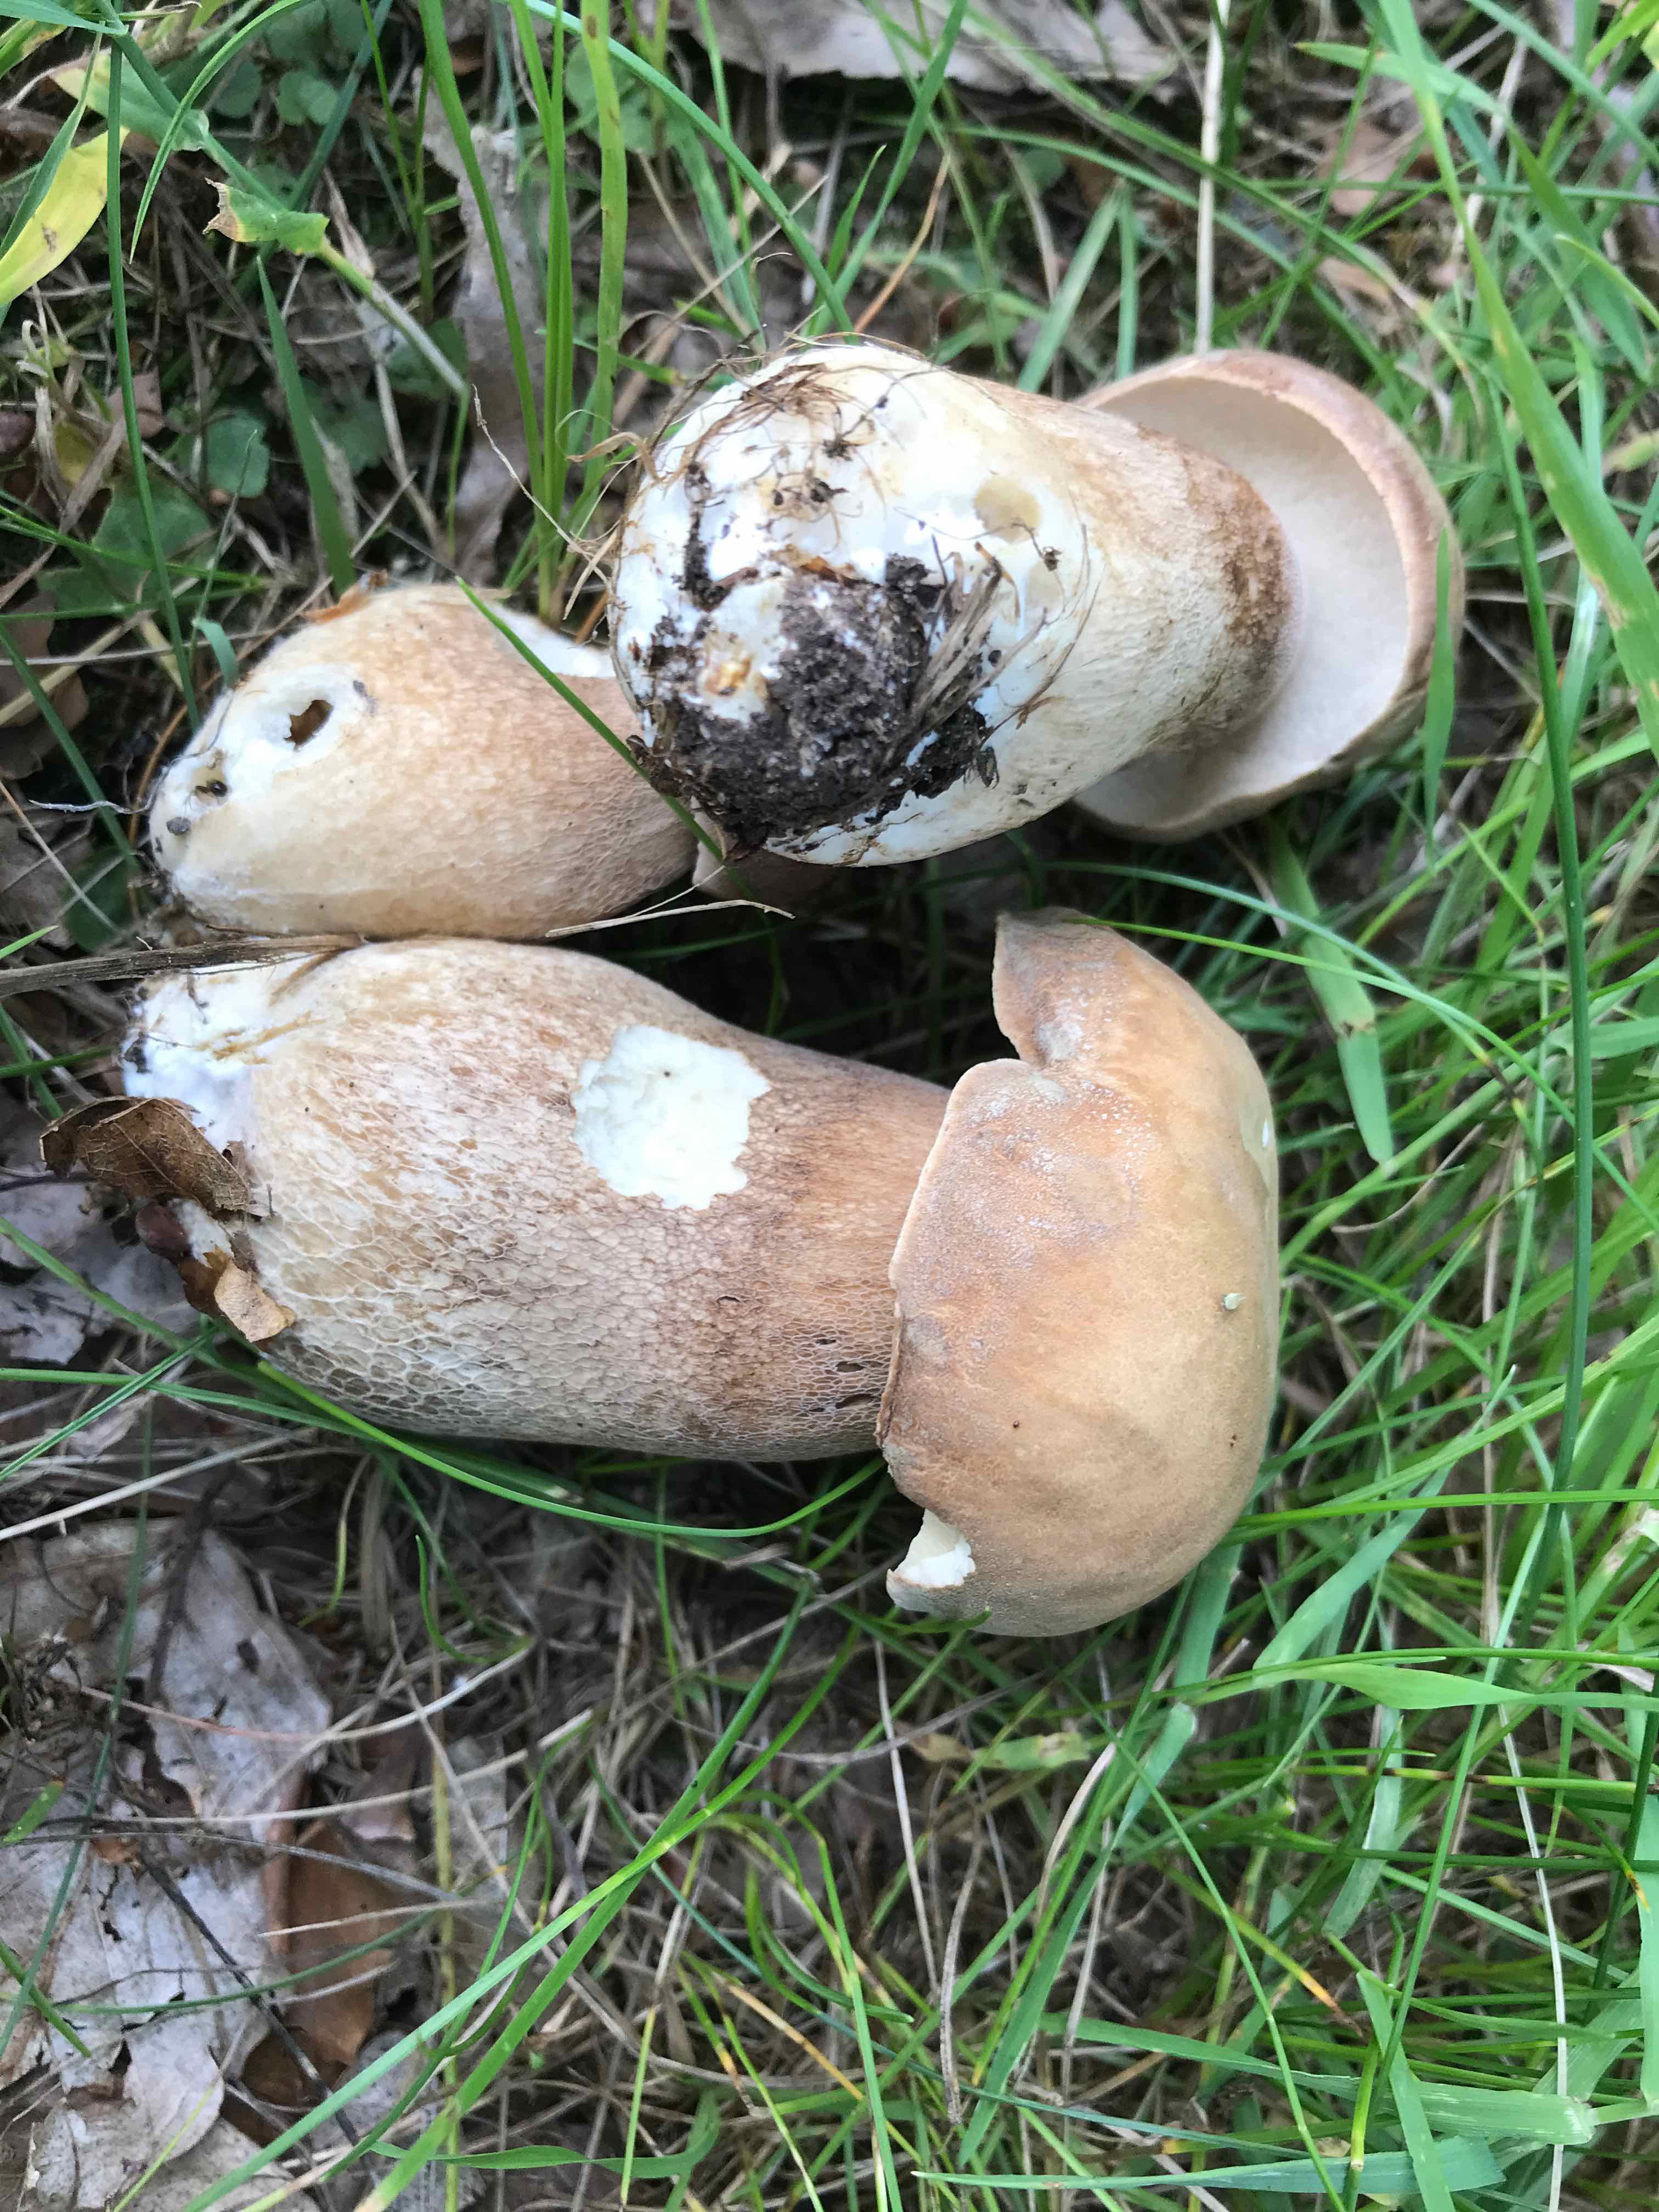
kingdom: Fungi
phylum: Basidiomycota
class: Agaricomycetes
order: Boletales
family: Boletaceae
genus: Boletus
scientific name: Boletus reticulatus
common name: sommer-rørhat
